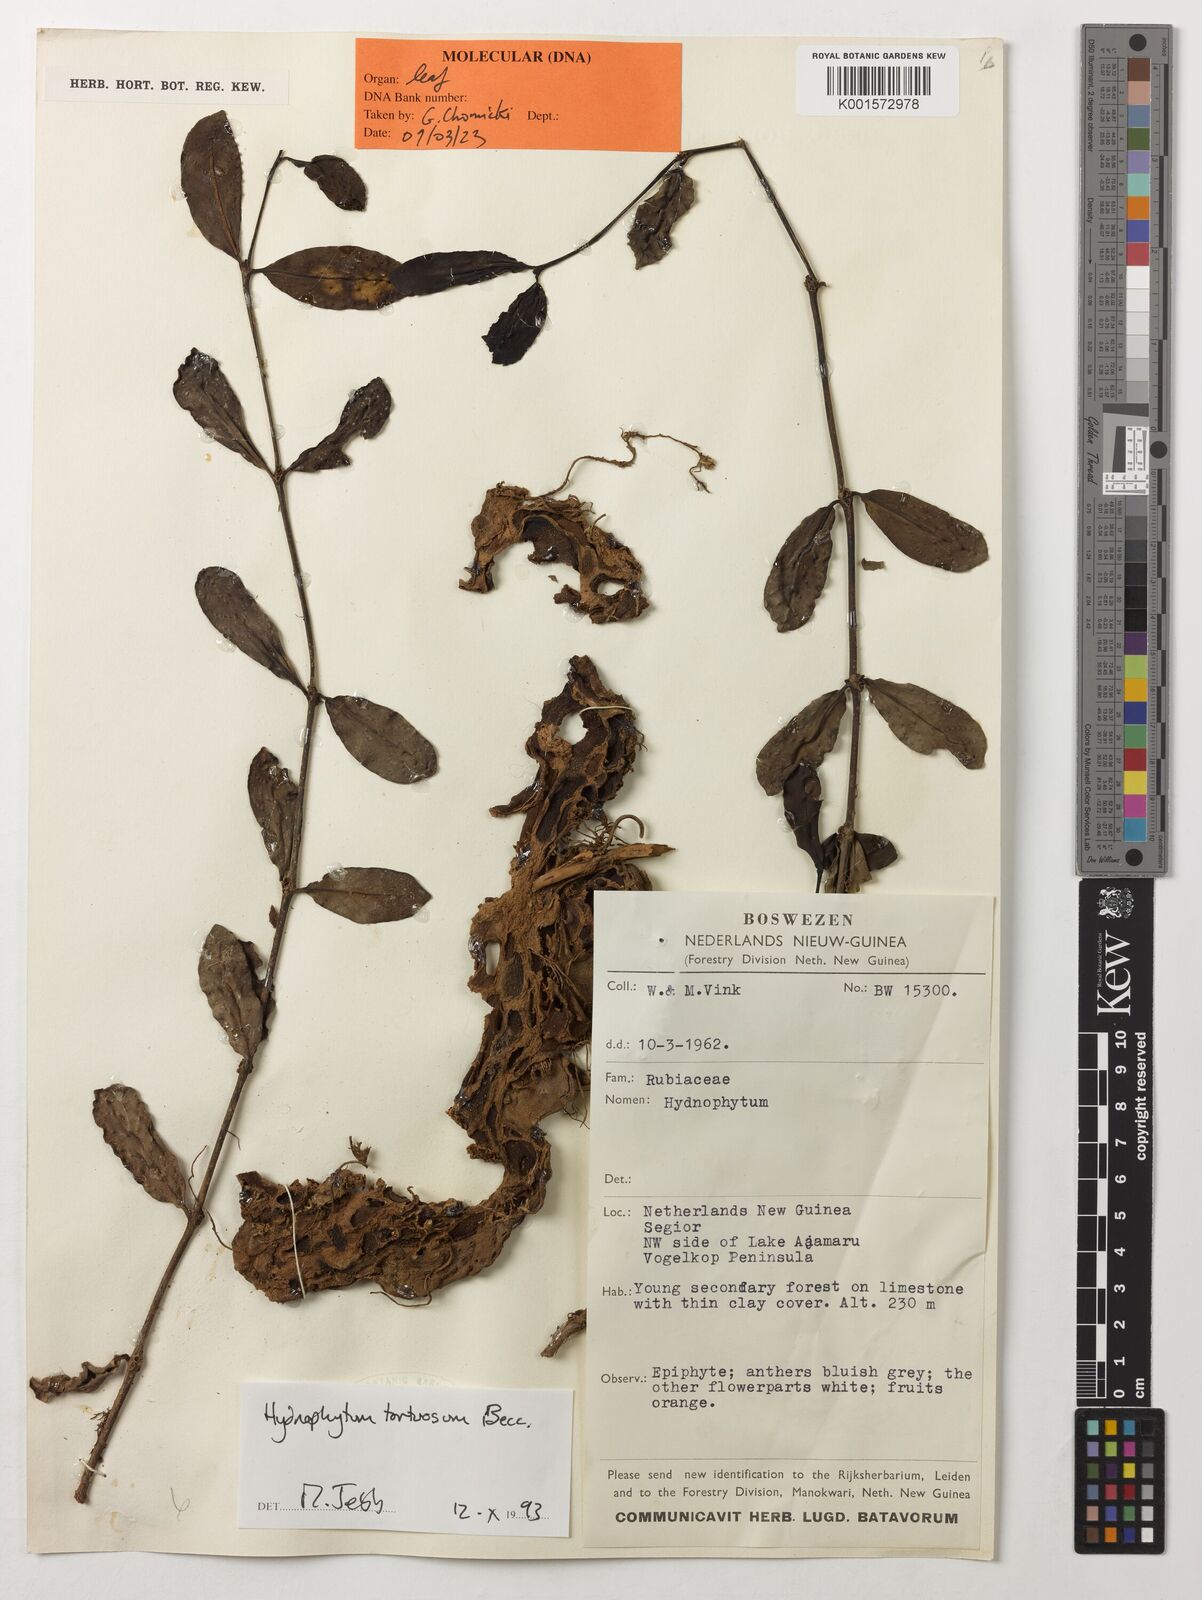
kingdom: Plantae
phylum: Tracheophyta
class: Magnoliopsida
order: Gentianales
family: Rubiaceae
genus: Hydnophytum
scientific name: Hydnophytum tortuosum
